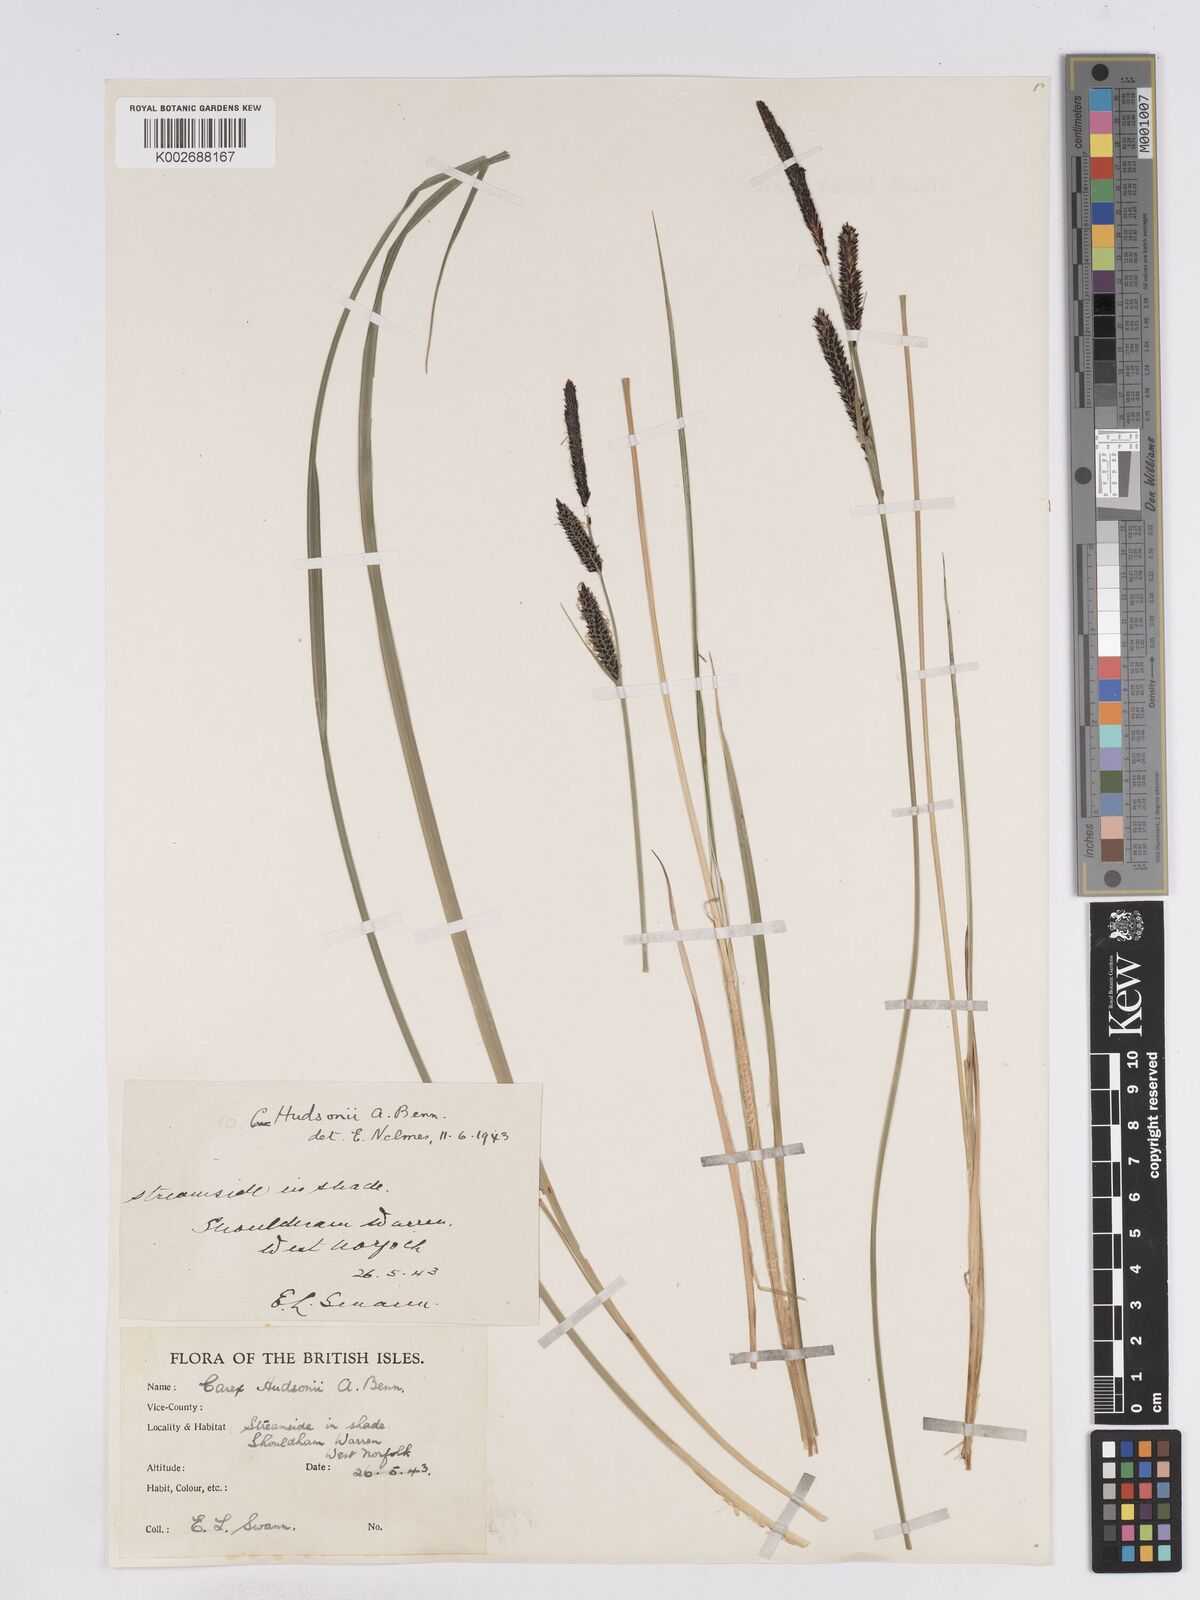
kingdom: Plantae
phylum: Tracheophyta
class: Liliopsida
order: Poales
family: Cyperaceae
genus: Carex
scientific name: Carex elata
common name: Tufted sedge
